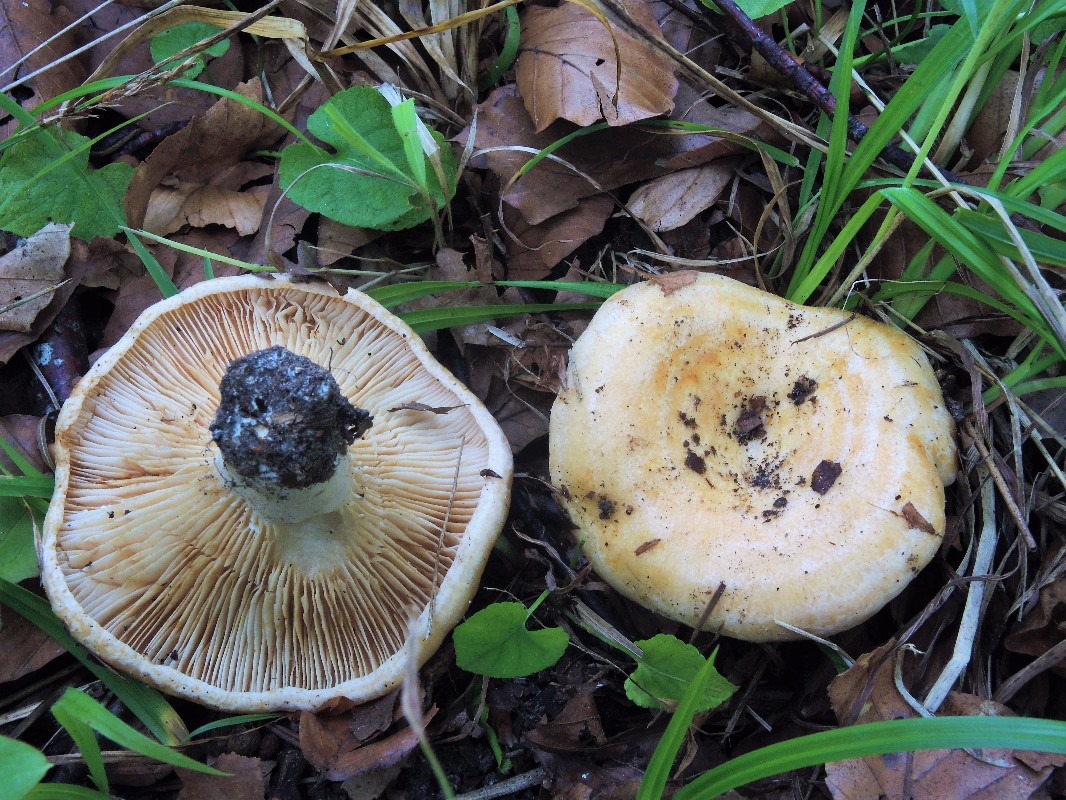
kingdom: Fungi
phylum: Basidiomycota
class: Agaricomycetes
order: Russulales
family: Russulaceae
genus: Lactarius
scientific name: Lactarius acerrimus
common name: brændende mælkehat
